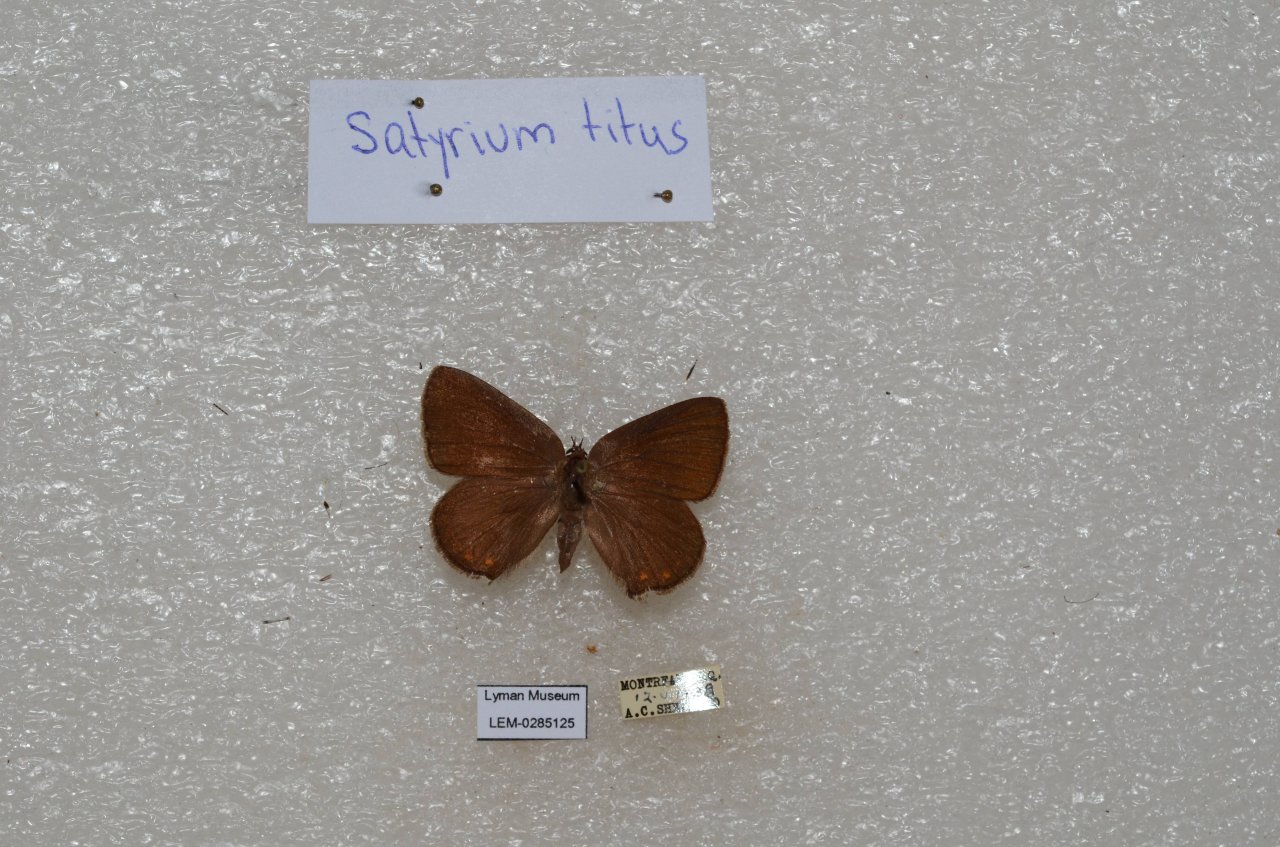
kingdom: Animalia
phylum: Arthropoda
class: Insecta
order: Lepidoptera
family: Lycaenidae
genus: Harkenclenus
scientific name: Harkenclenus titus
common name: Coral Hairstreak
